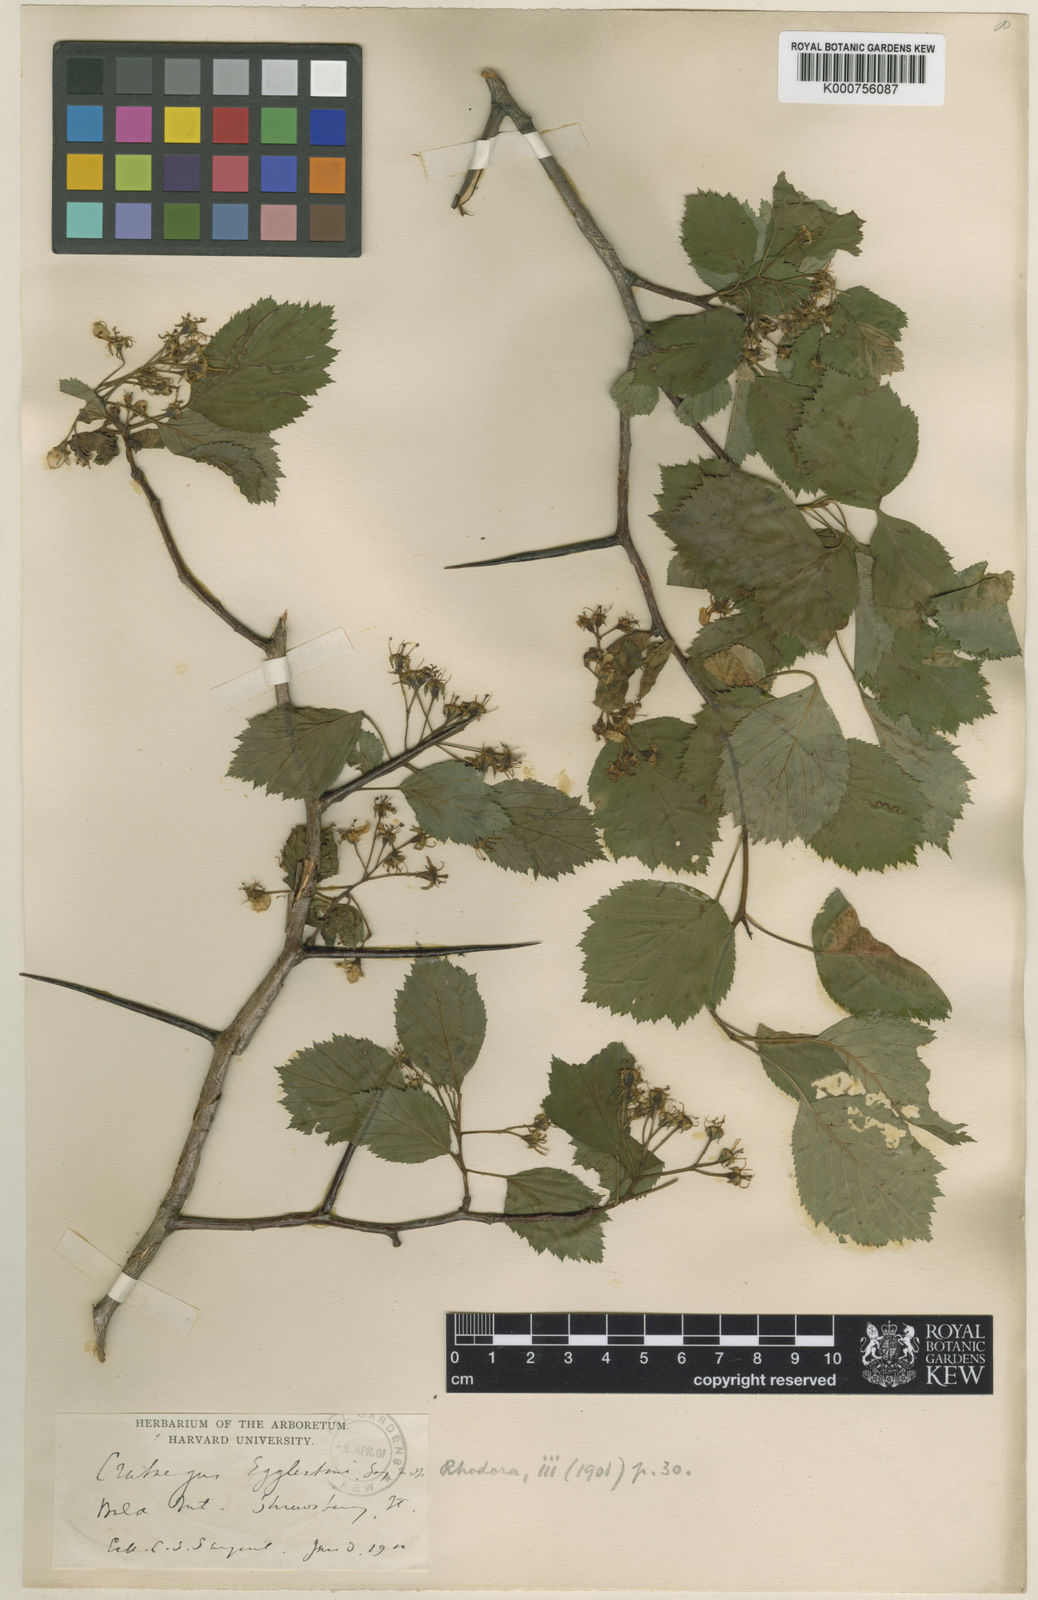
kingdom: Plantae
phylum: Tracheophyta
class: Magnoliopsida
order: Rosales
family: Rosaceae
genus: Crataegus
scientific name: Crataegus scabrida
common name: Rough hawthorn
